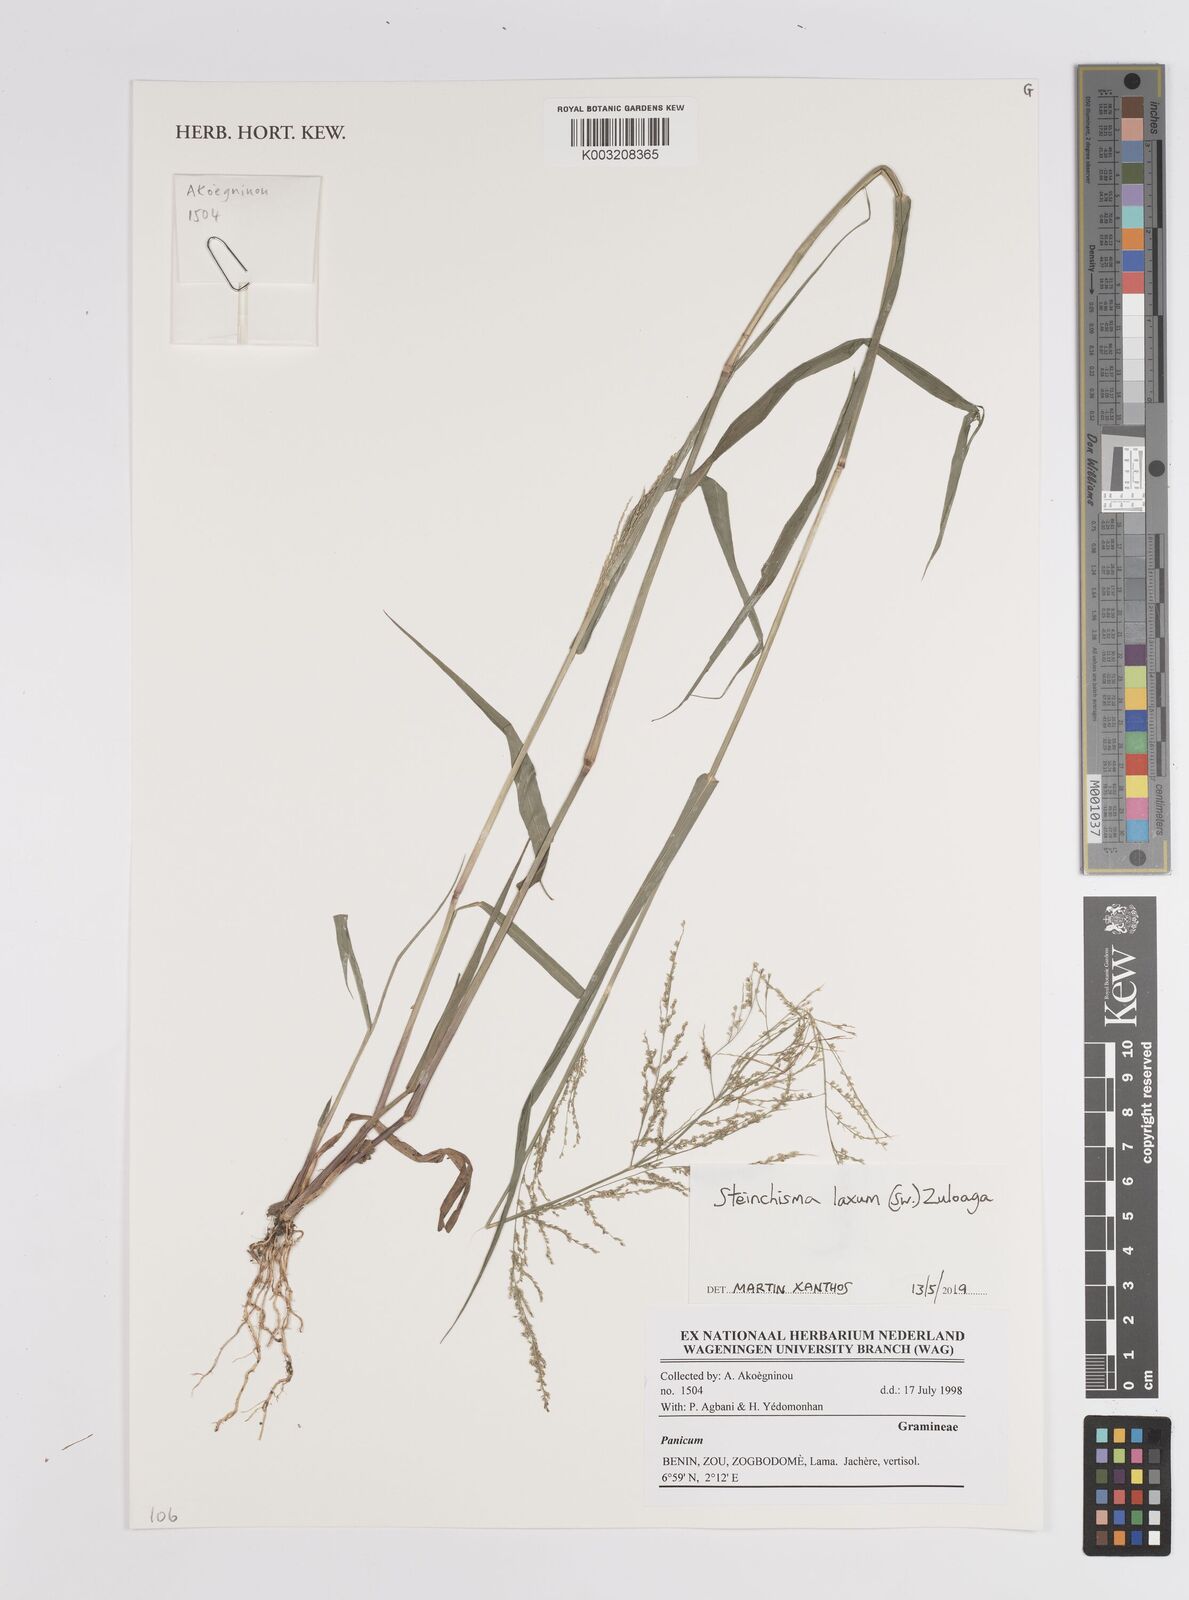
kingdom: Plantae
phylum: Tracheophyta
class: Liliopsida
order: Poales
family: Poaceae
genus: Steinchisma
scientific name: Steinchisma laxum
